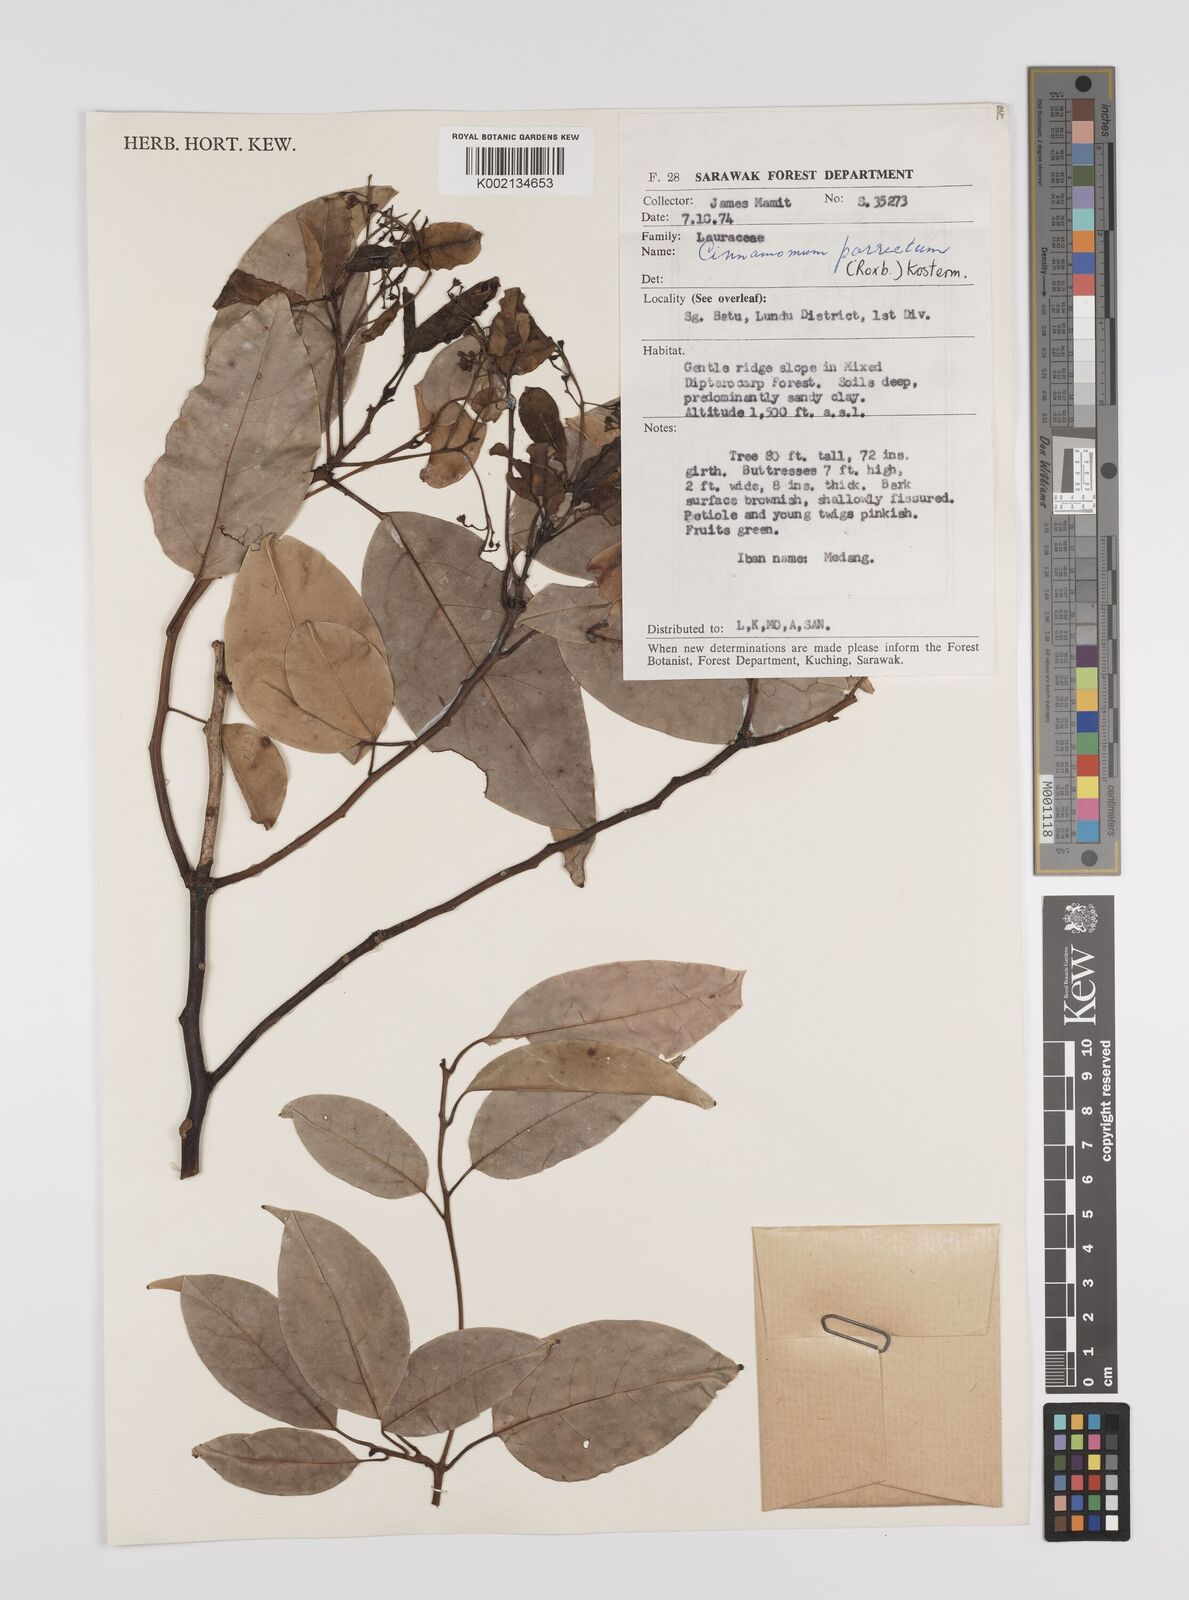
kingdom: Plantae
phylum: Tracheophyta
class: Magnoliopsida
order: Laurales
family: Lauraceae
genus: Cinnamomum
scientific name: Cinnamomum parthenoxylon
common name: Martaban camphor wood
